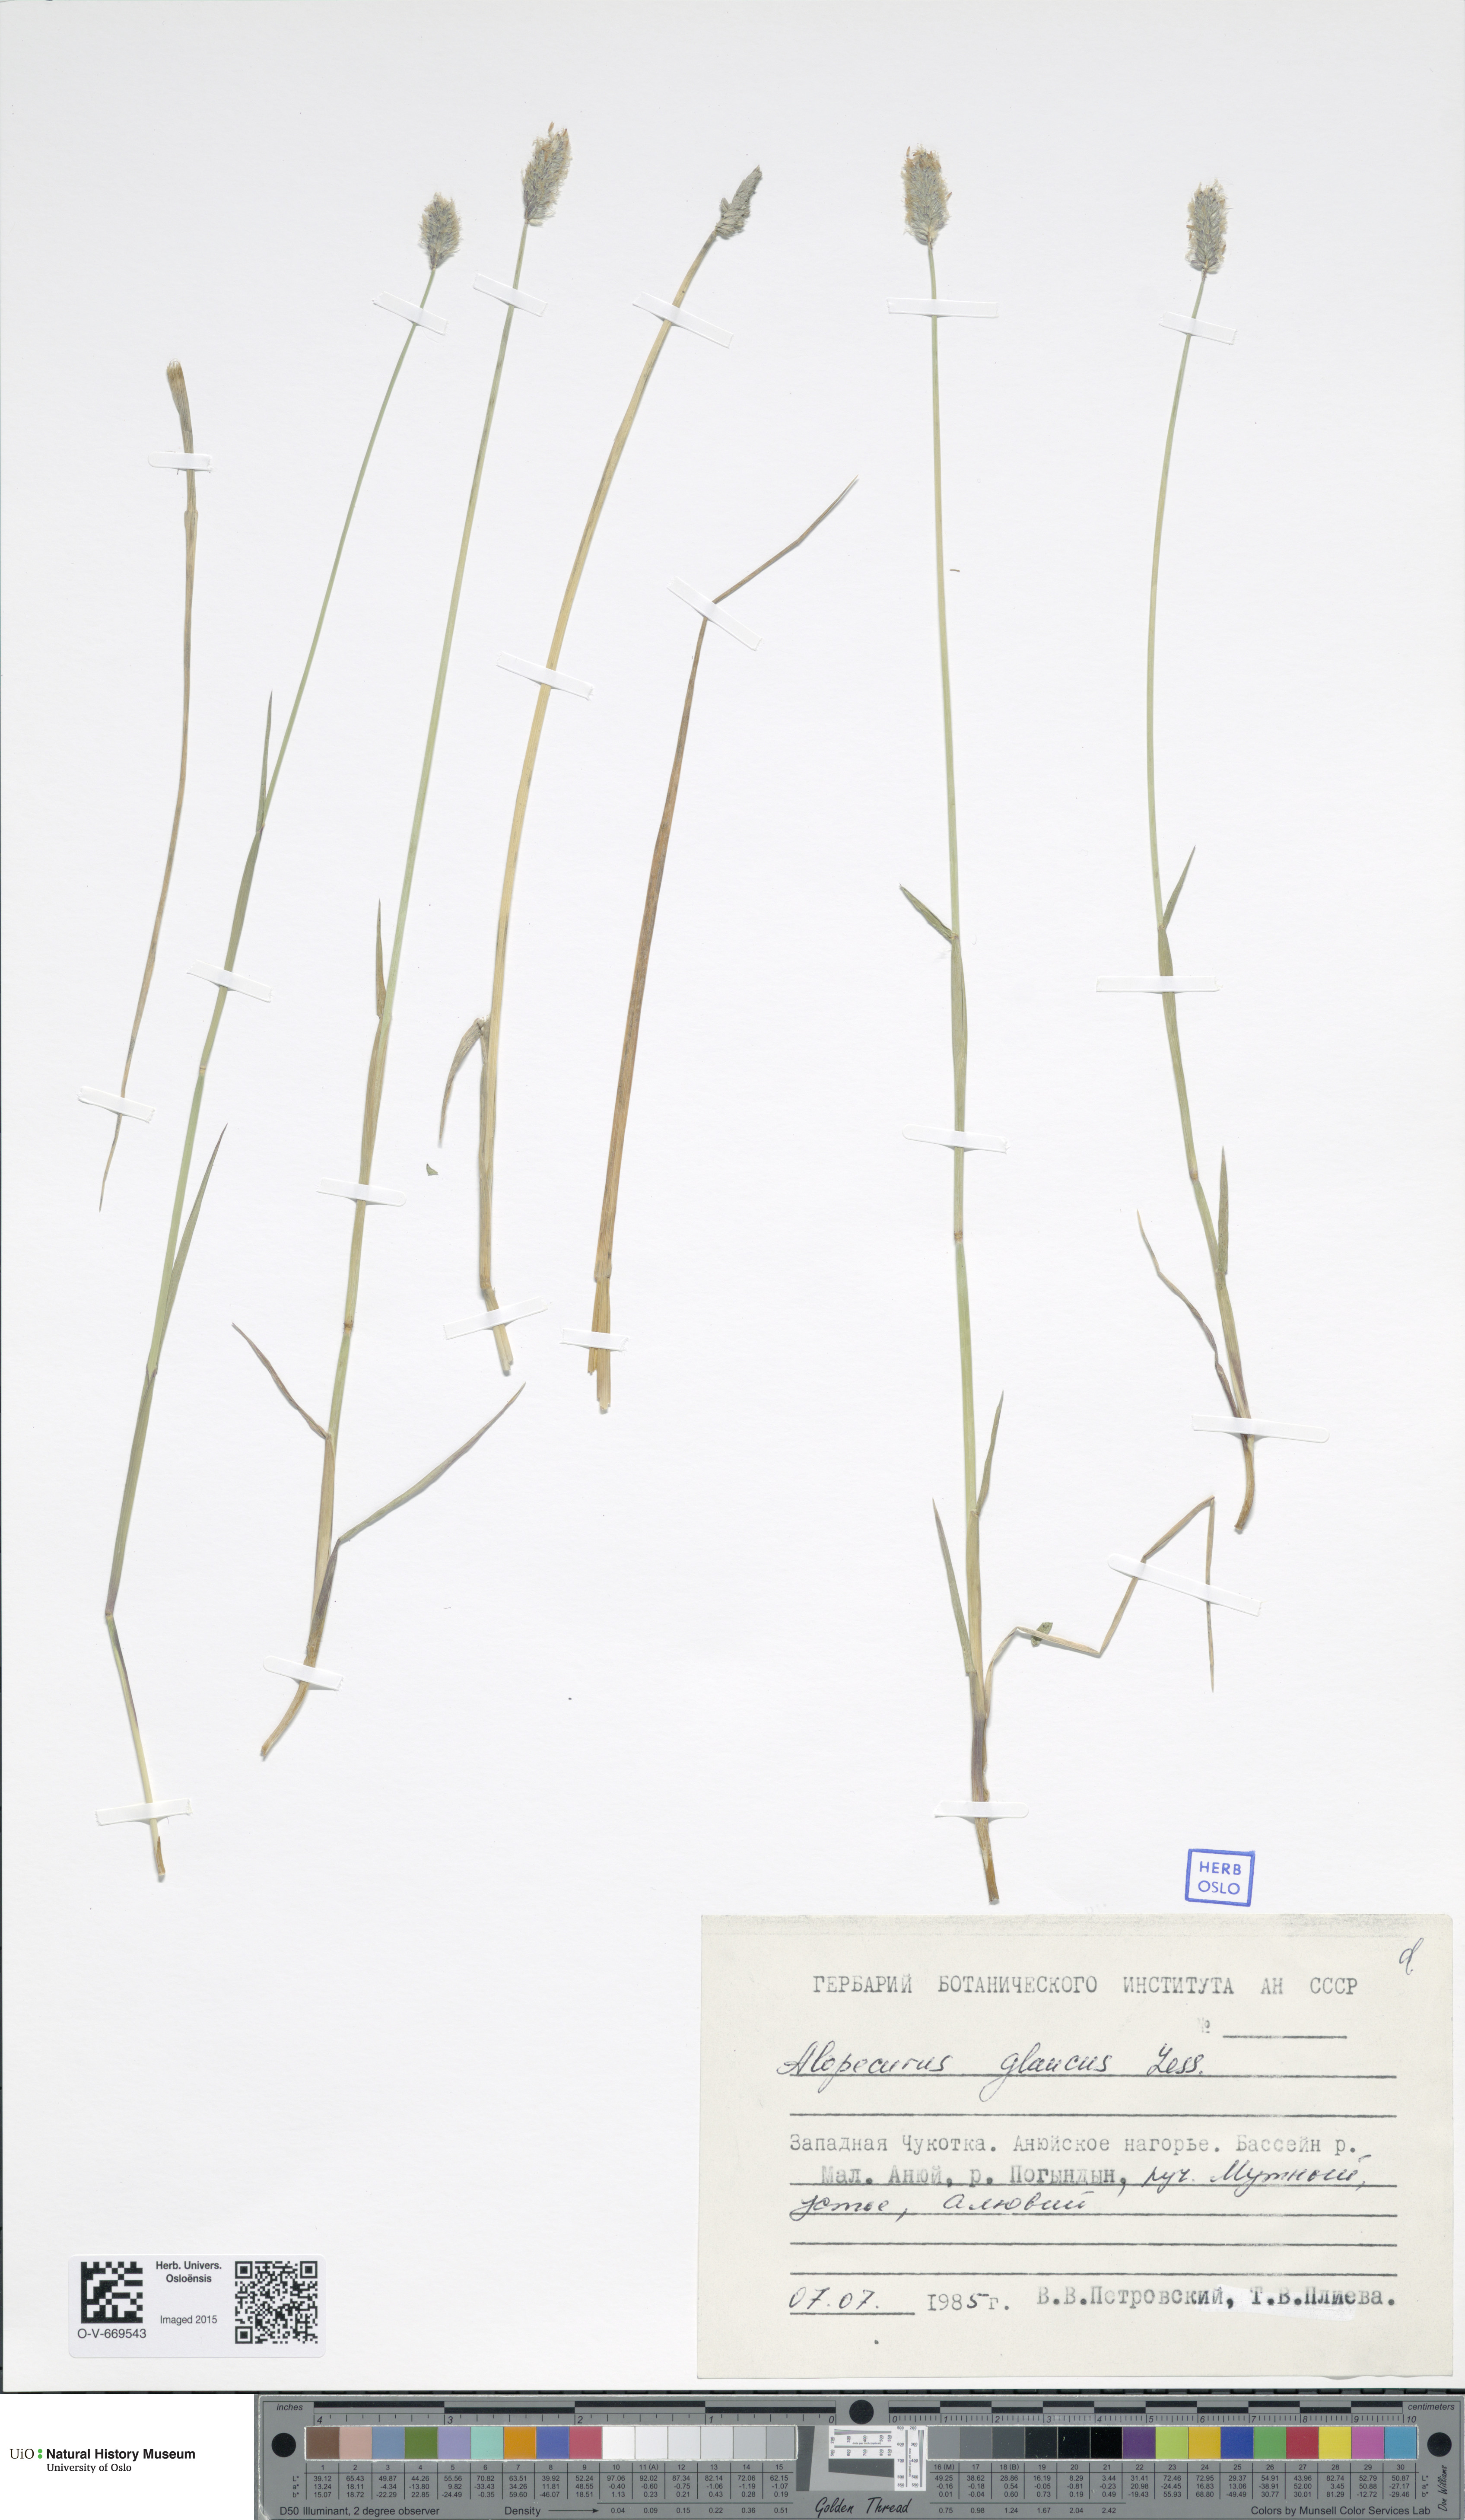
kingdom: Plantae
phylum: Tracheophyta
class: Liliopsida
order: Poales
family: Poaceae
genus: Alopecurus
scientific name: Alopecurus magellanicus
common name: Alpine foxtail
